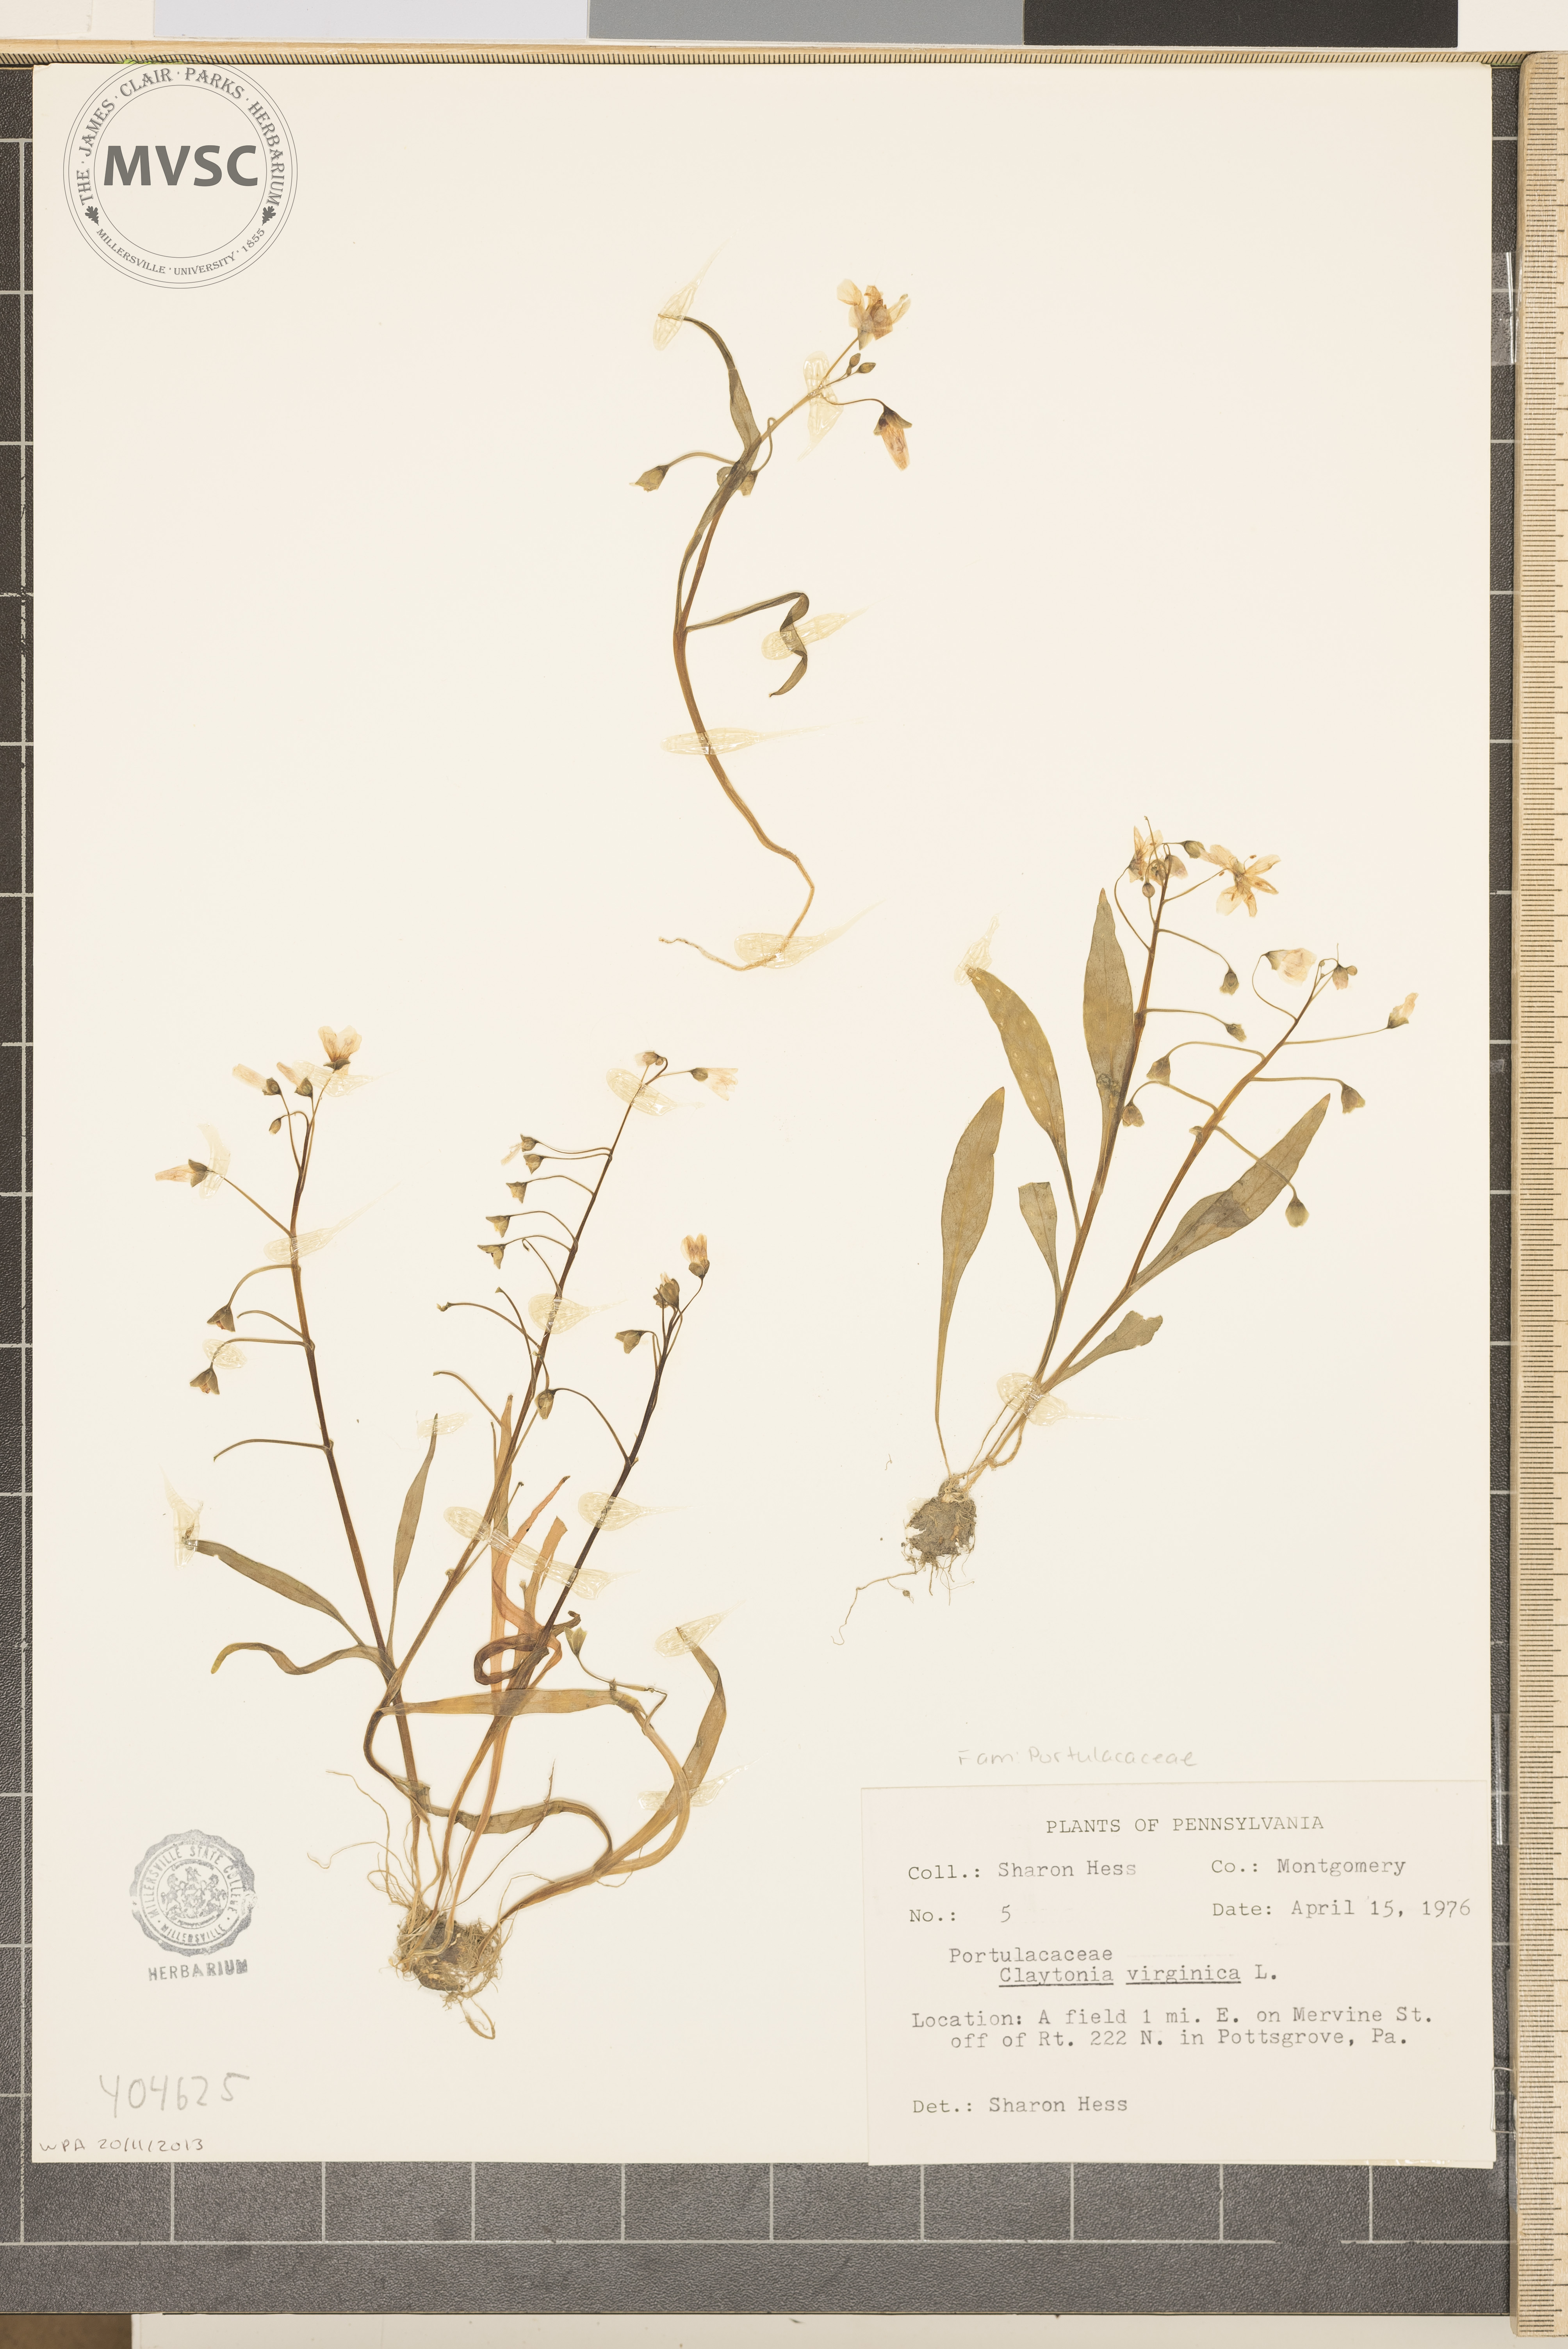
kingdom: Plantae
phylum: Tracheophyta
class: Magnoliopsida
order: Caryophyllales
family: Montiaceae
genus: Claytonia
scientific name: Claytonia virginica
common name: Virginia springbeauty
